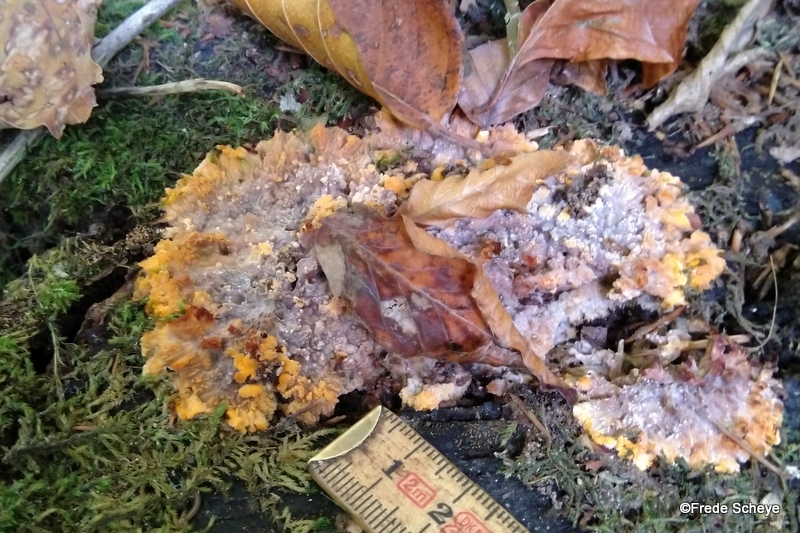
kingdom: Fungi
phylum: Basidiomycota
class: Agaricomycetes
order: Polyporales
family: Meruliaceae
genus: Phlebia
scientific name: Phlebia radiata
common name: stråle-åresvamp
